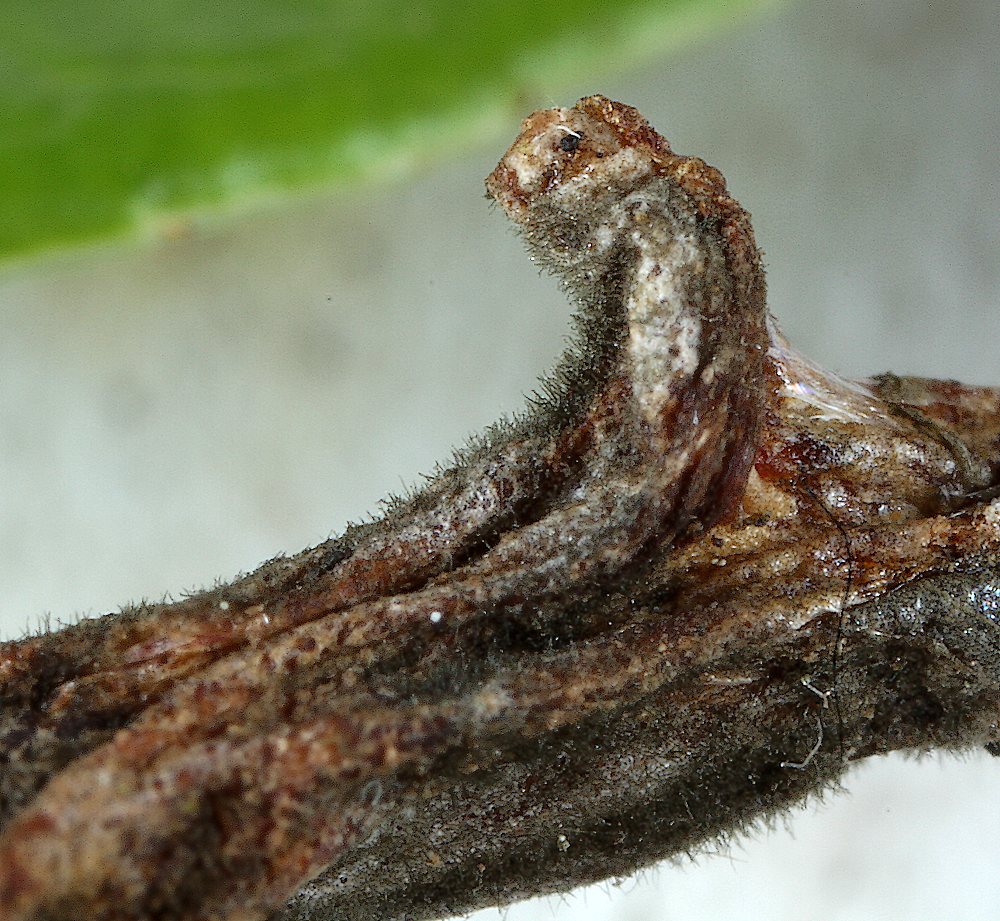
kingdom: Fungi
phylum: Basidiomycota
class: Exobasidiomycetes
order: Exobasidiales
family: Exobasidiaceae
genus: Exobasidium
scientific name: Exobasidium vaccinii
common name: tyttebærblad-bøllesvamp
